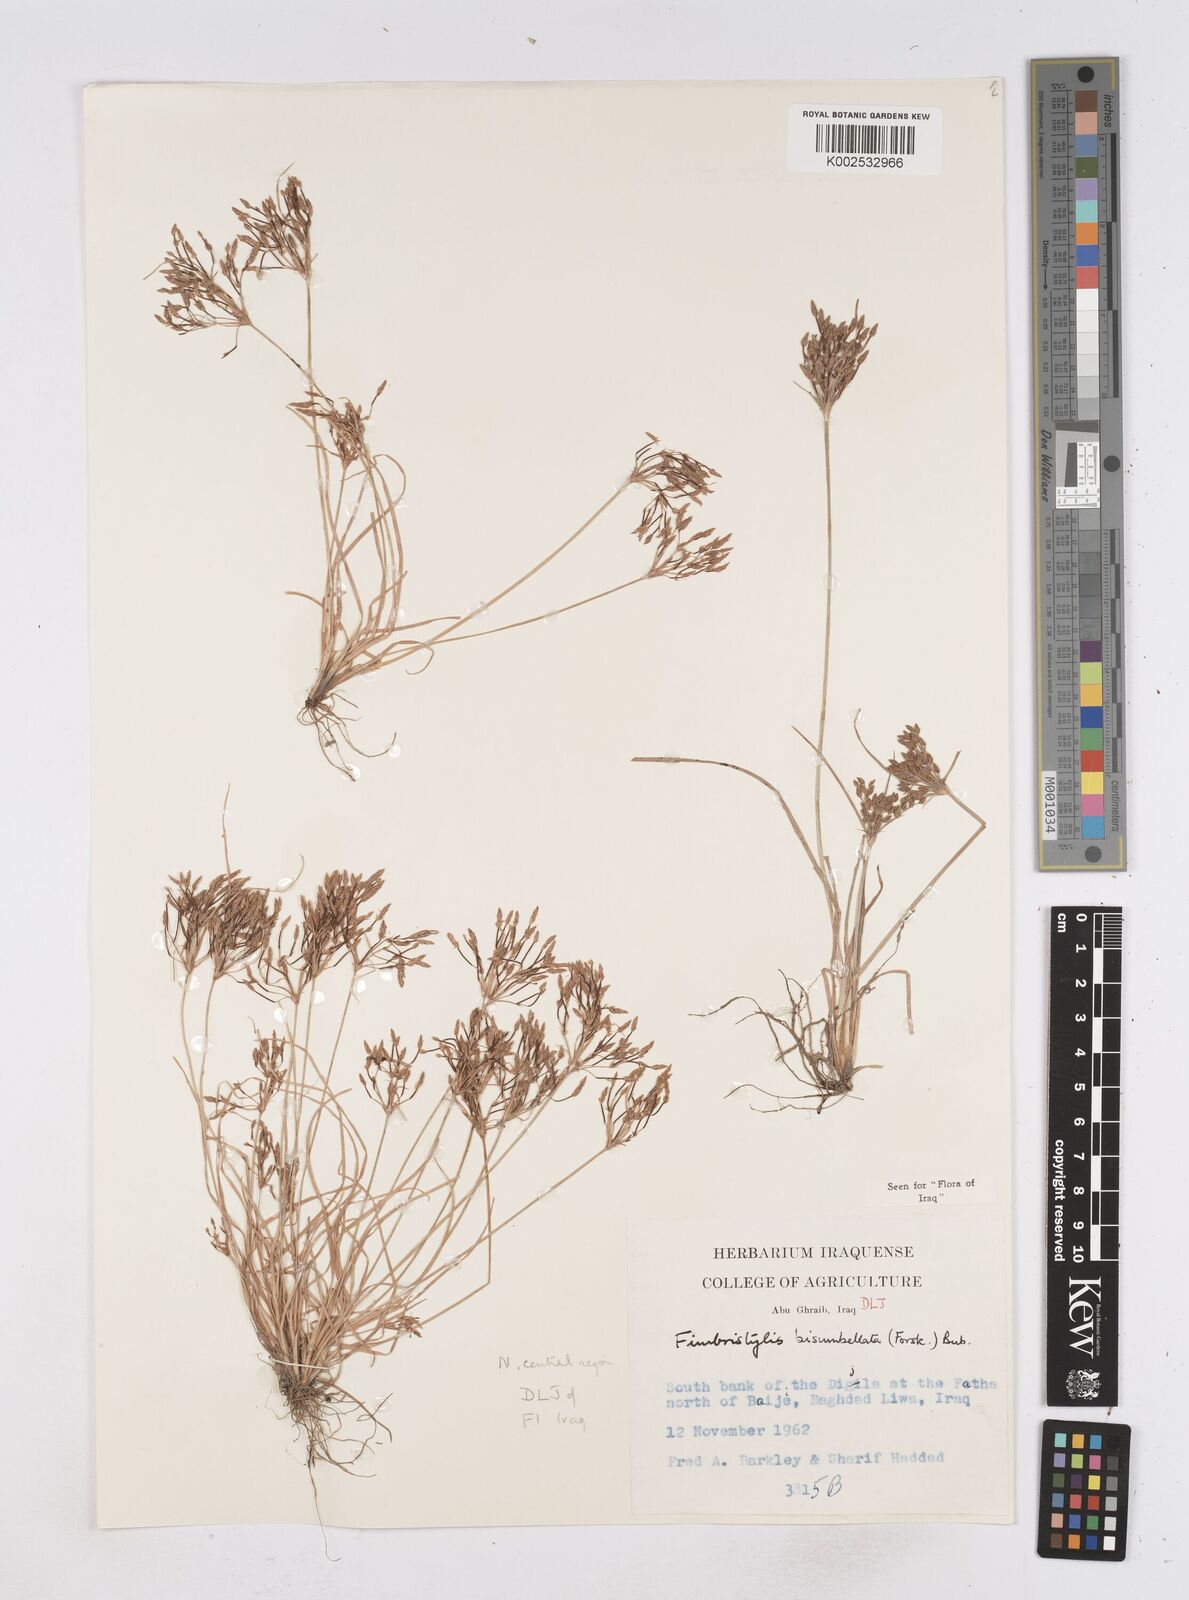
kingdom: Plantae
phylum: Tracheophyta
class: Liliopsida
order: Poales
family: Cyperaceae
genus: Fimbristylis
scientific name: Fimbristylis bisumbellata
